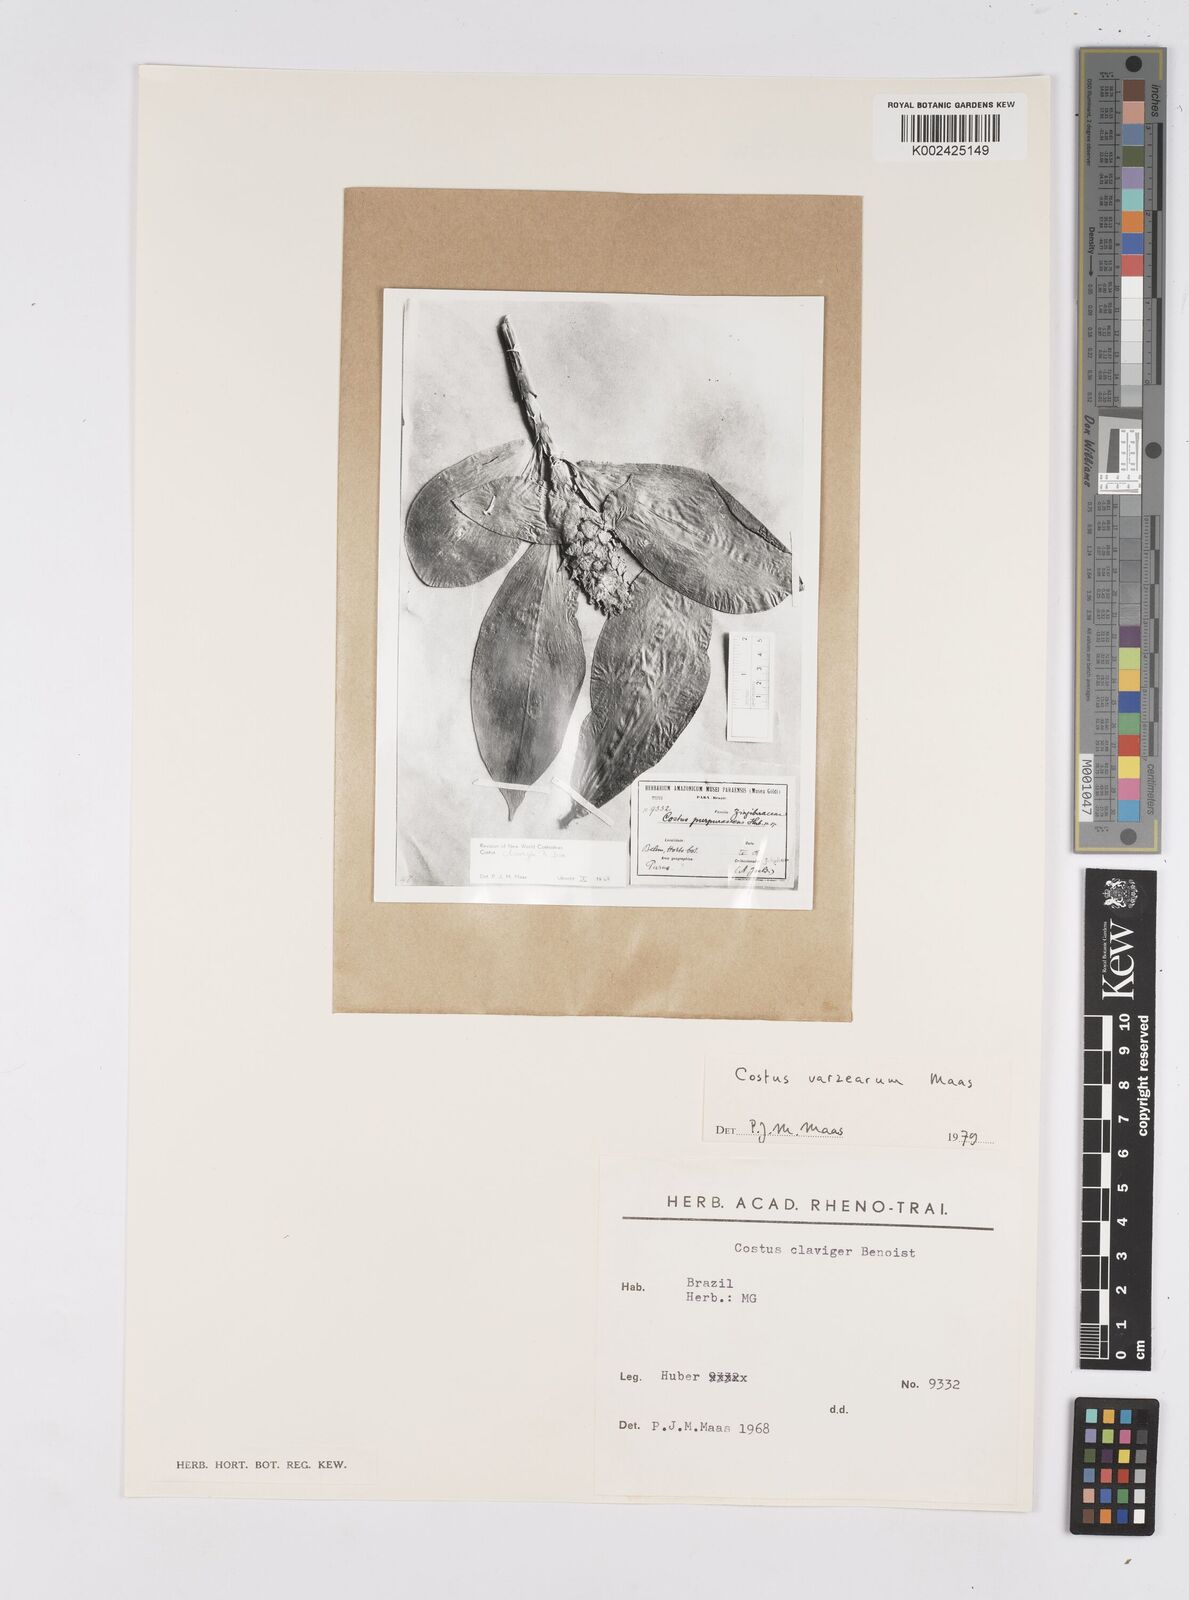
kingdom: Plantae
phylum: Tracheophyta
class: Liliopsida
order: Zingiberales
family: Costaceae
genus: Costus
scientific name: Costus varzearum
